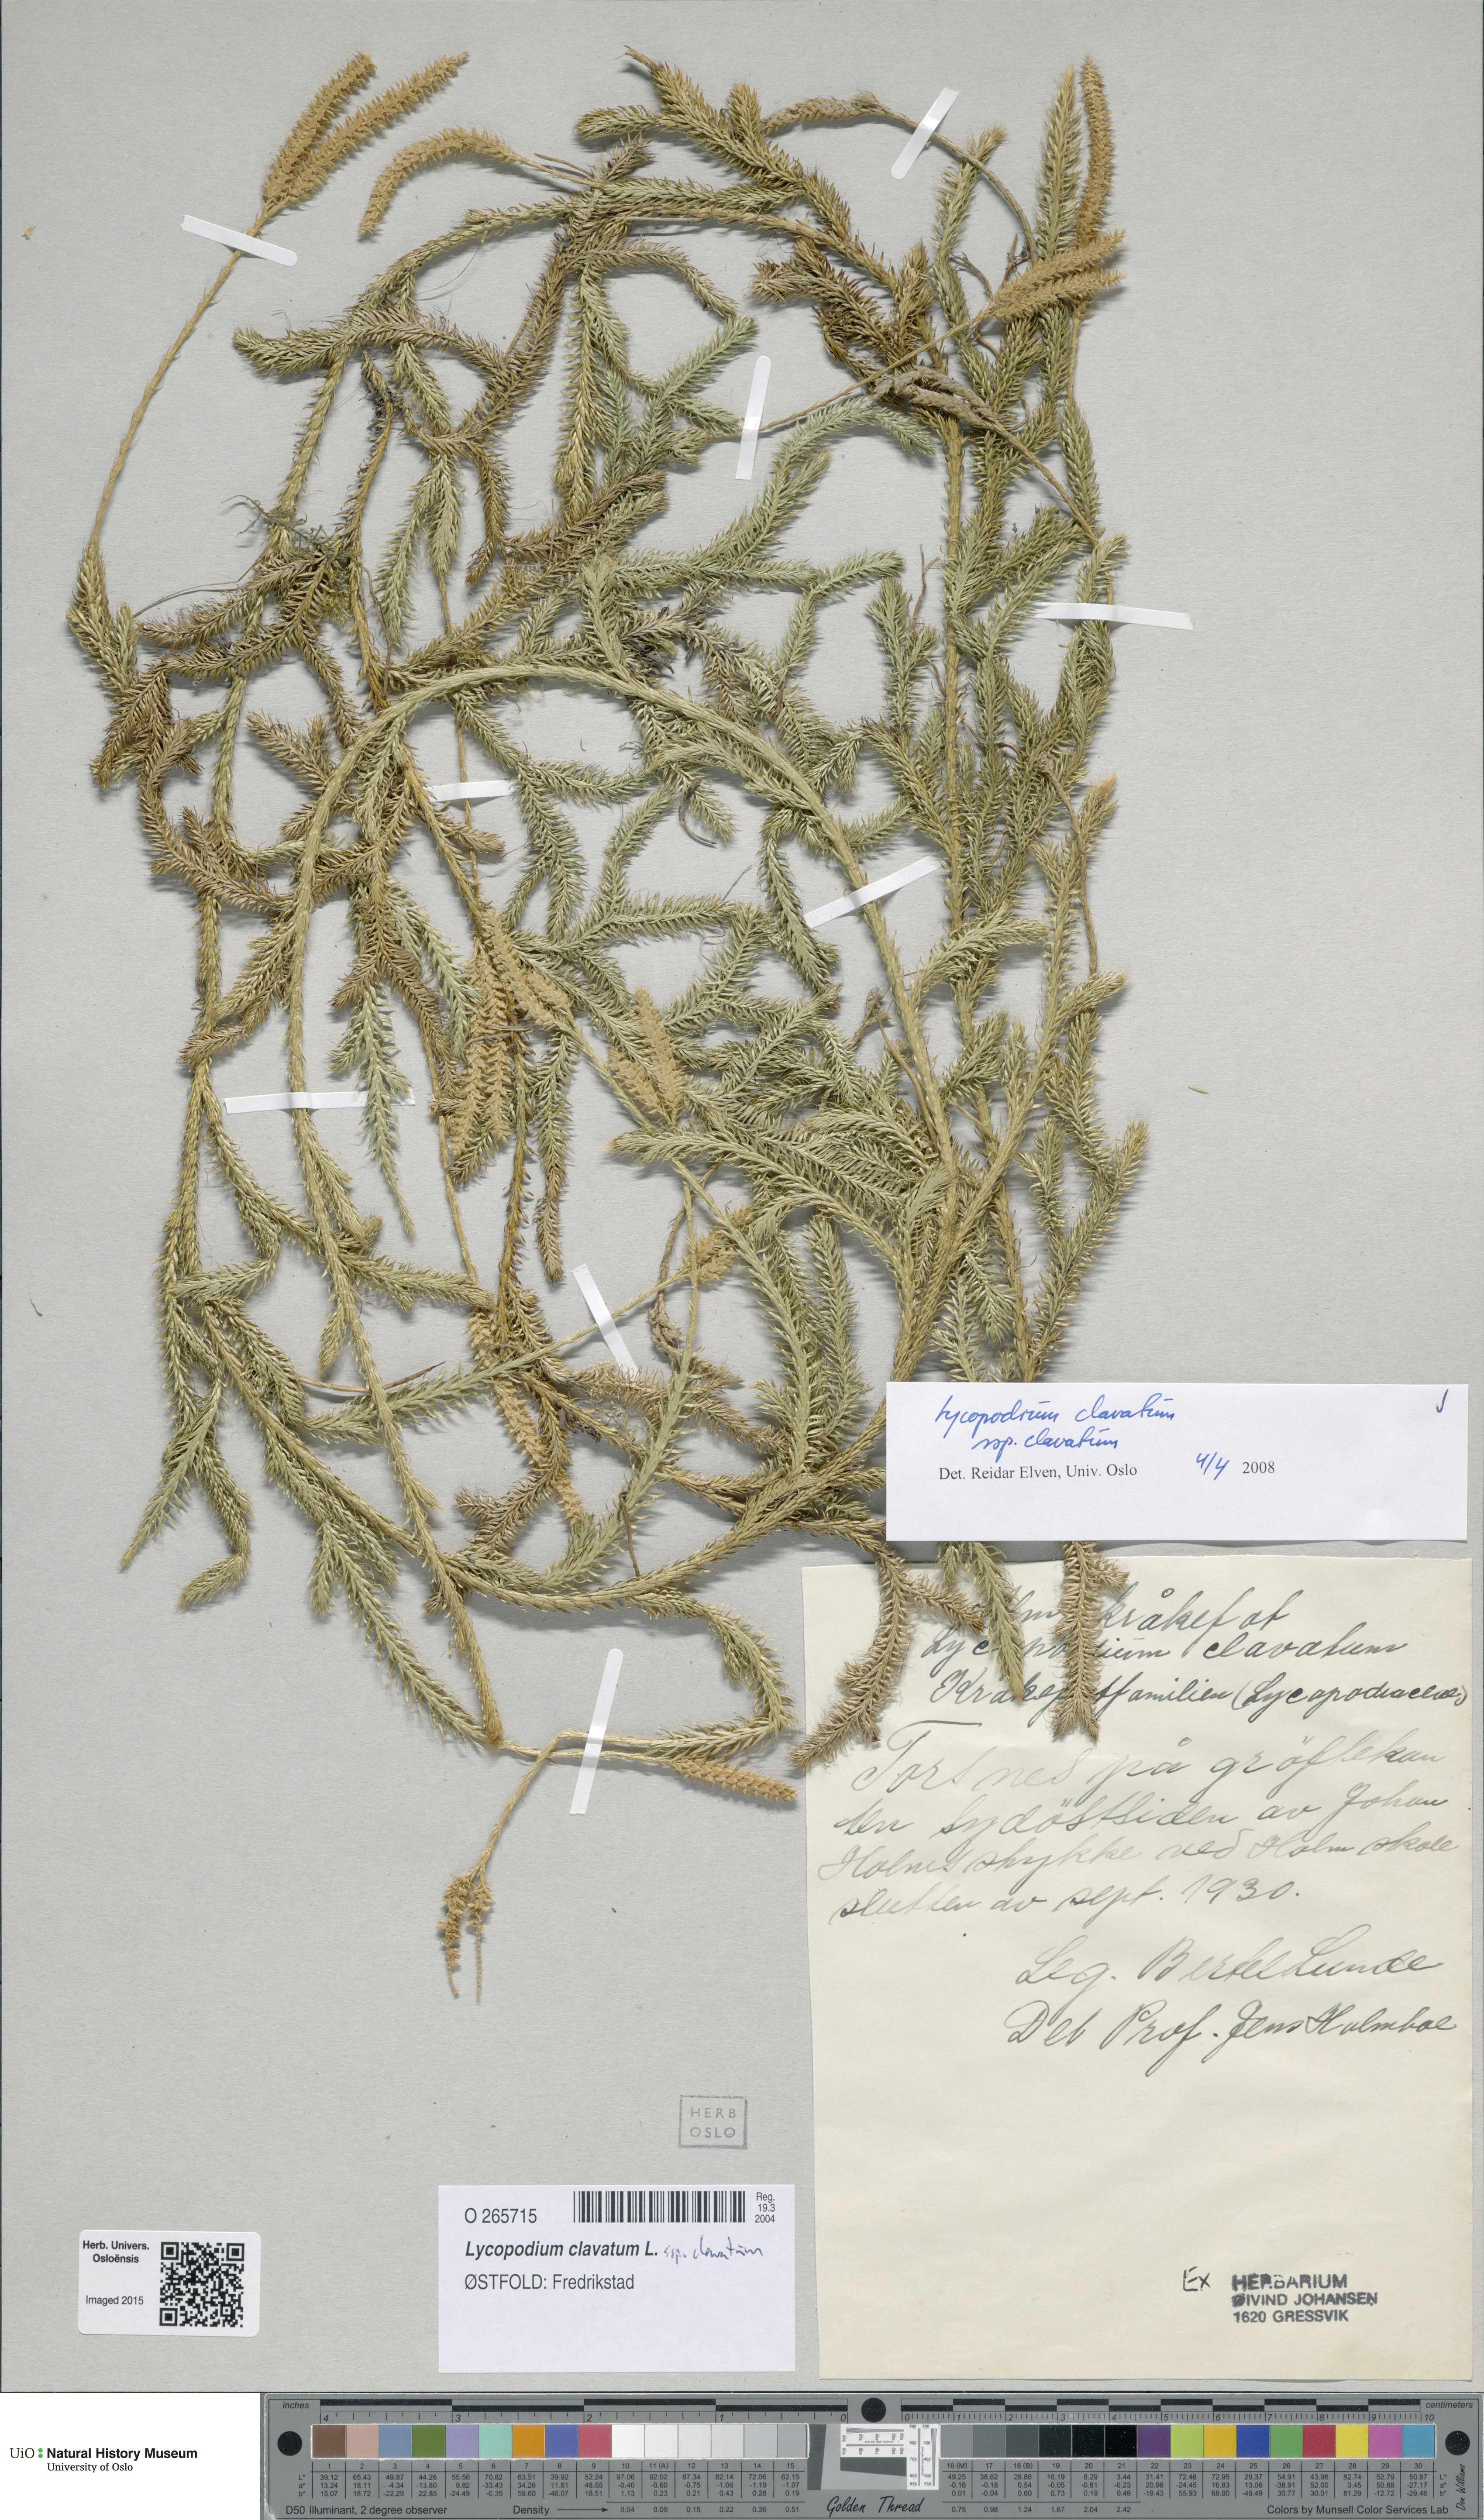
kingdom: Plantae
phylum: Tracheophyta
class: Lycopodiopsida
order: Lycopodiales
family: Lycopodiaceae
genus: Lycopodium
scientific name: Lycopodium clavatum
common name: Stag's-horn clubmoss
